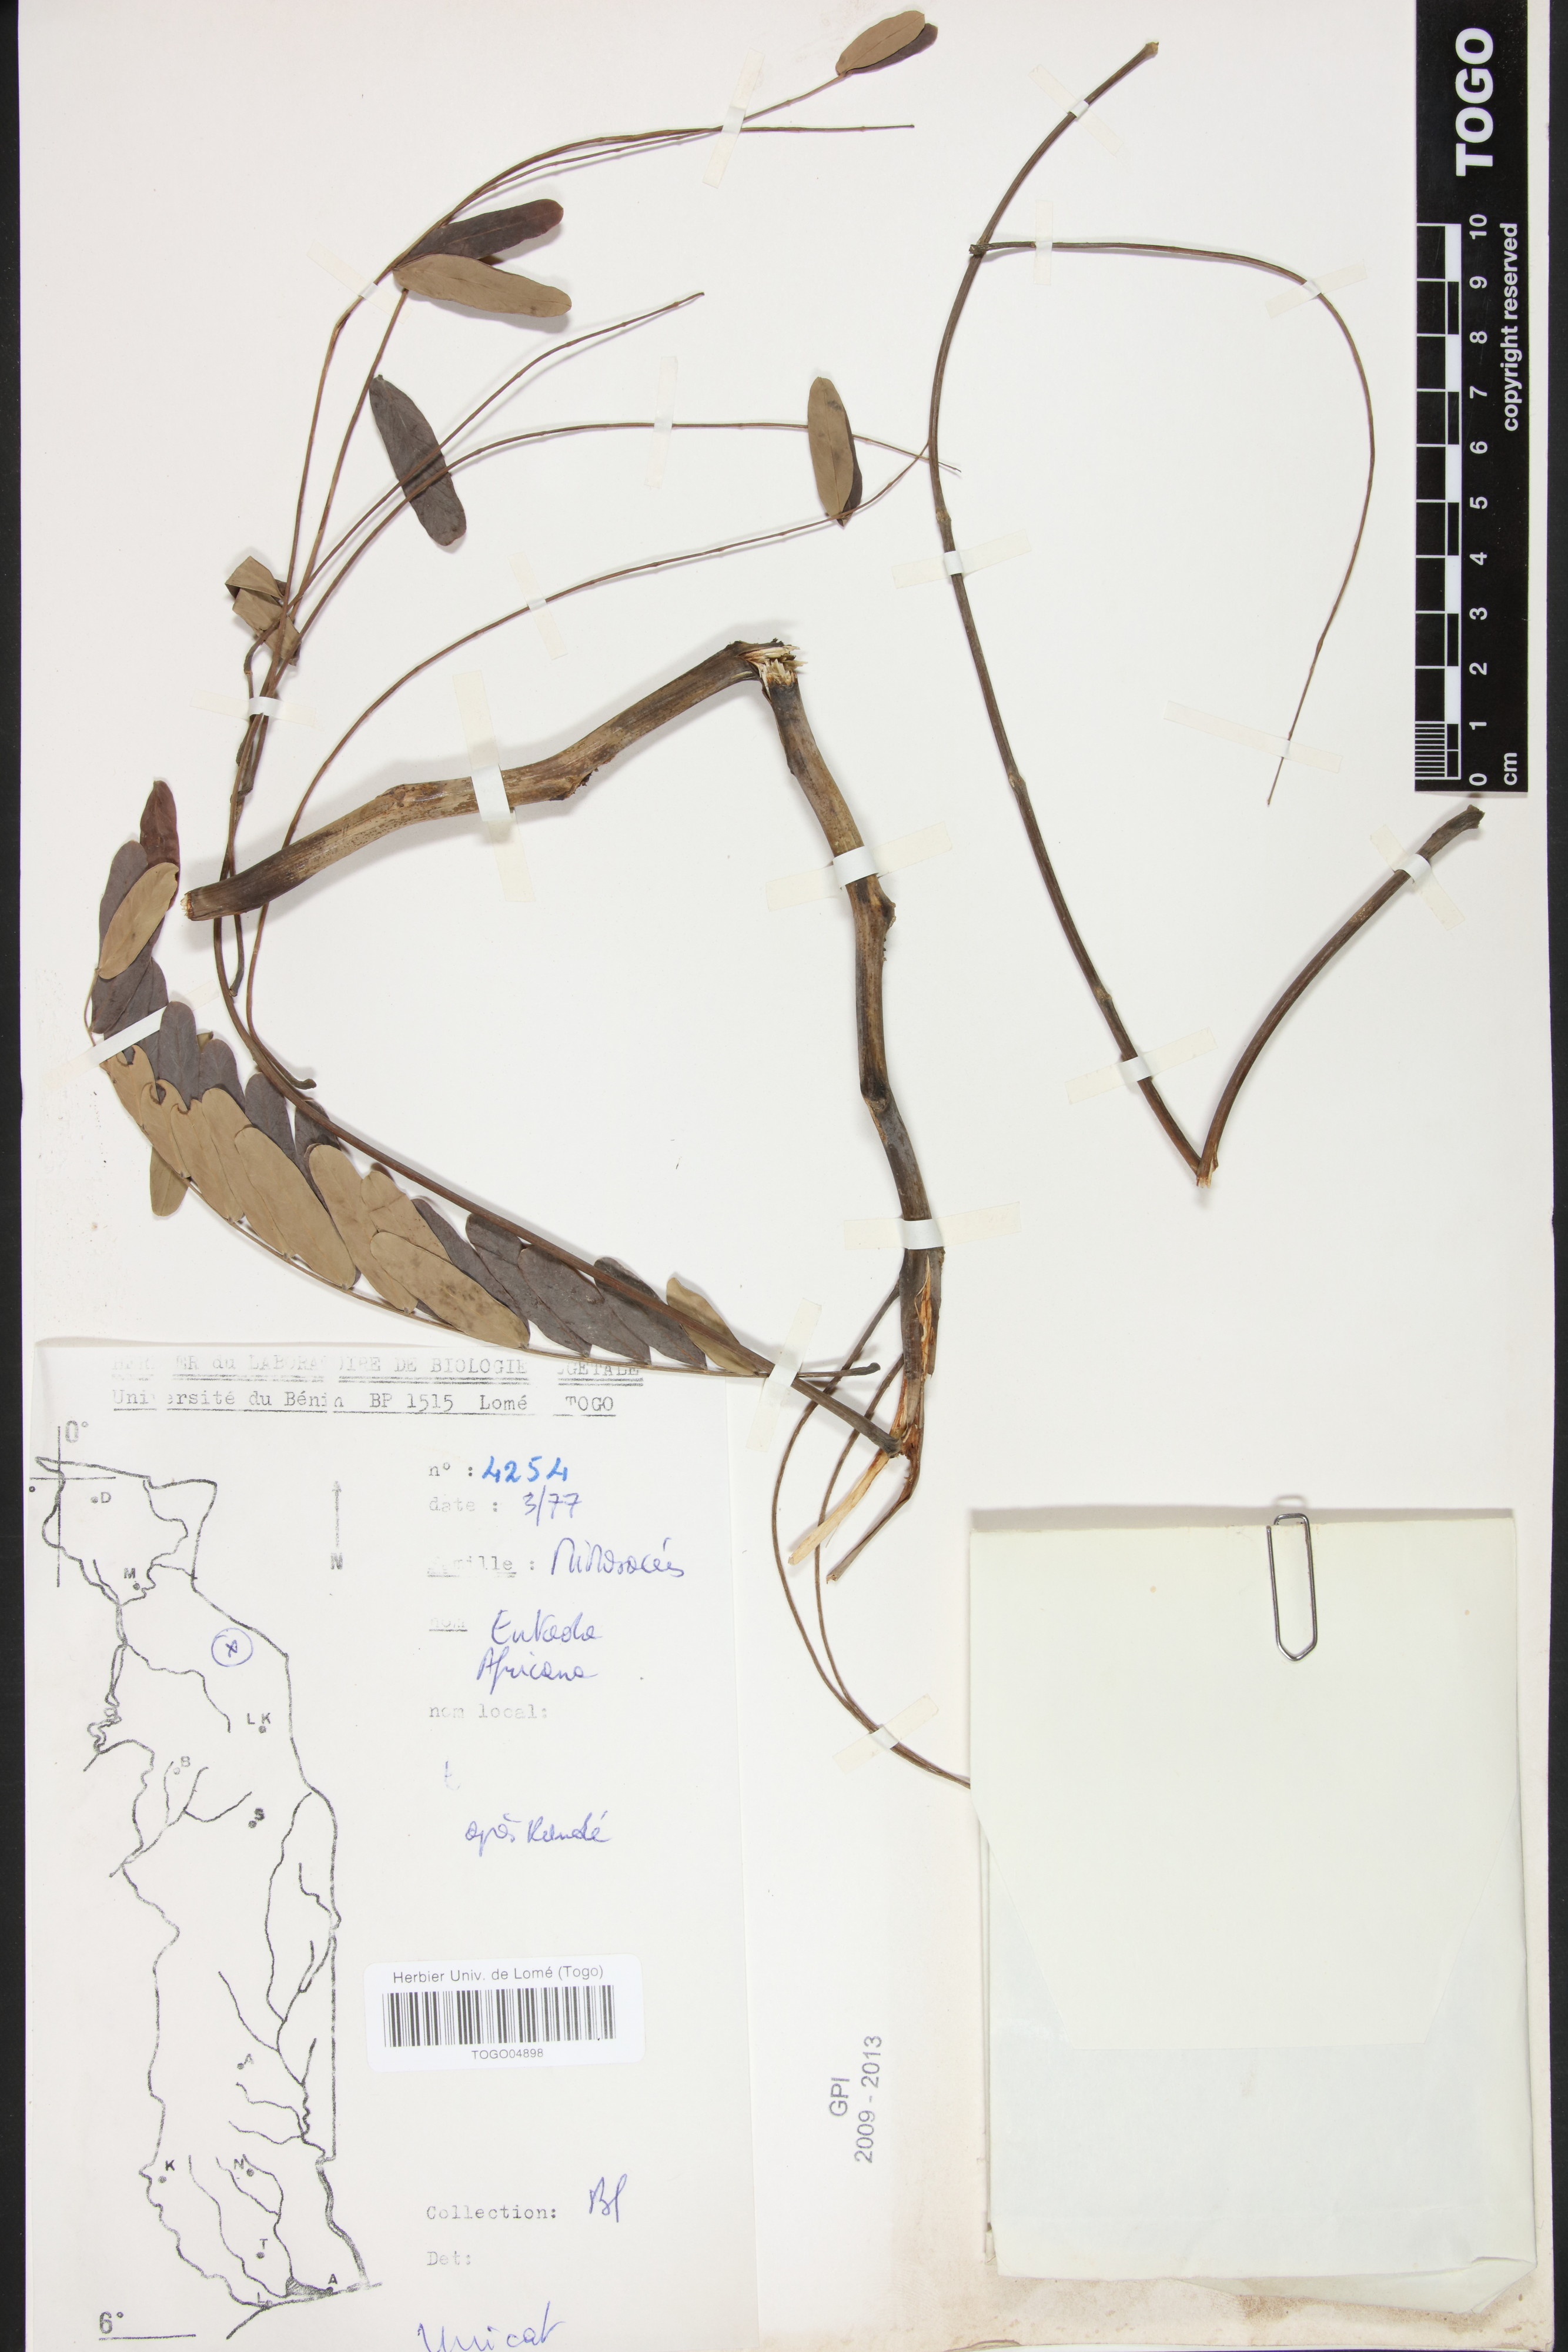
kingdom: Plantae
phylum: Tracheophyta
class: Magnoliopsida
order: Fabales
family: Fabaceae
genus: Entada
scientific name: Entada africana
